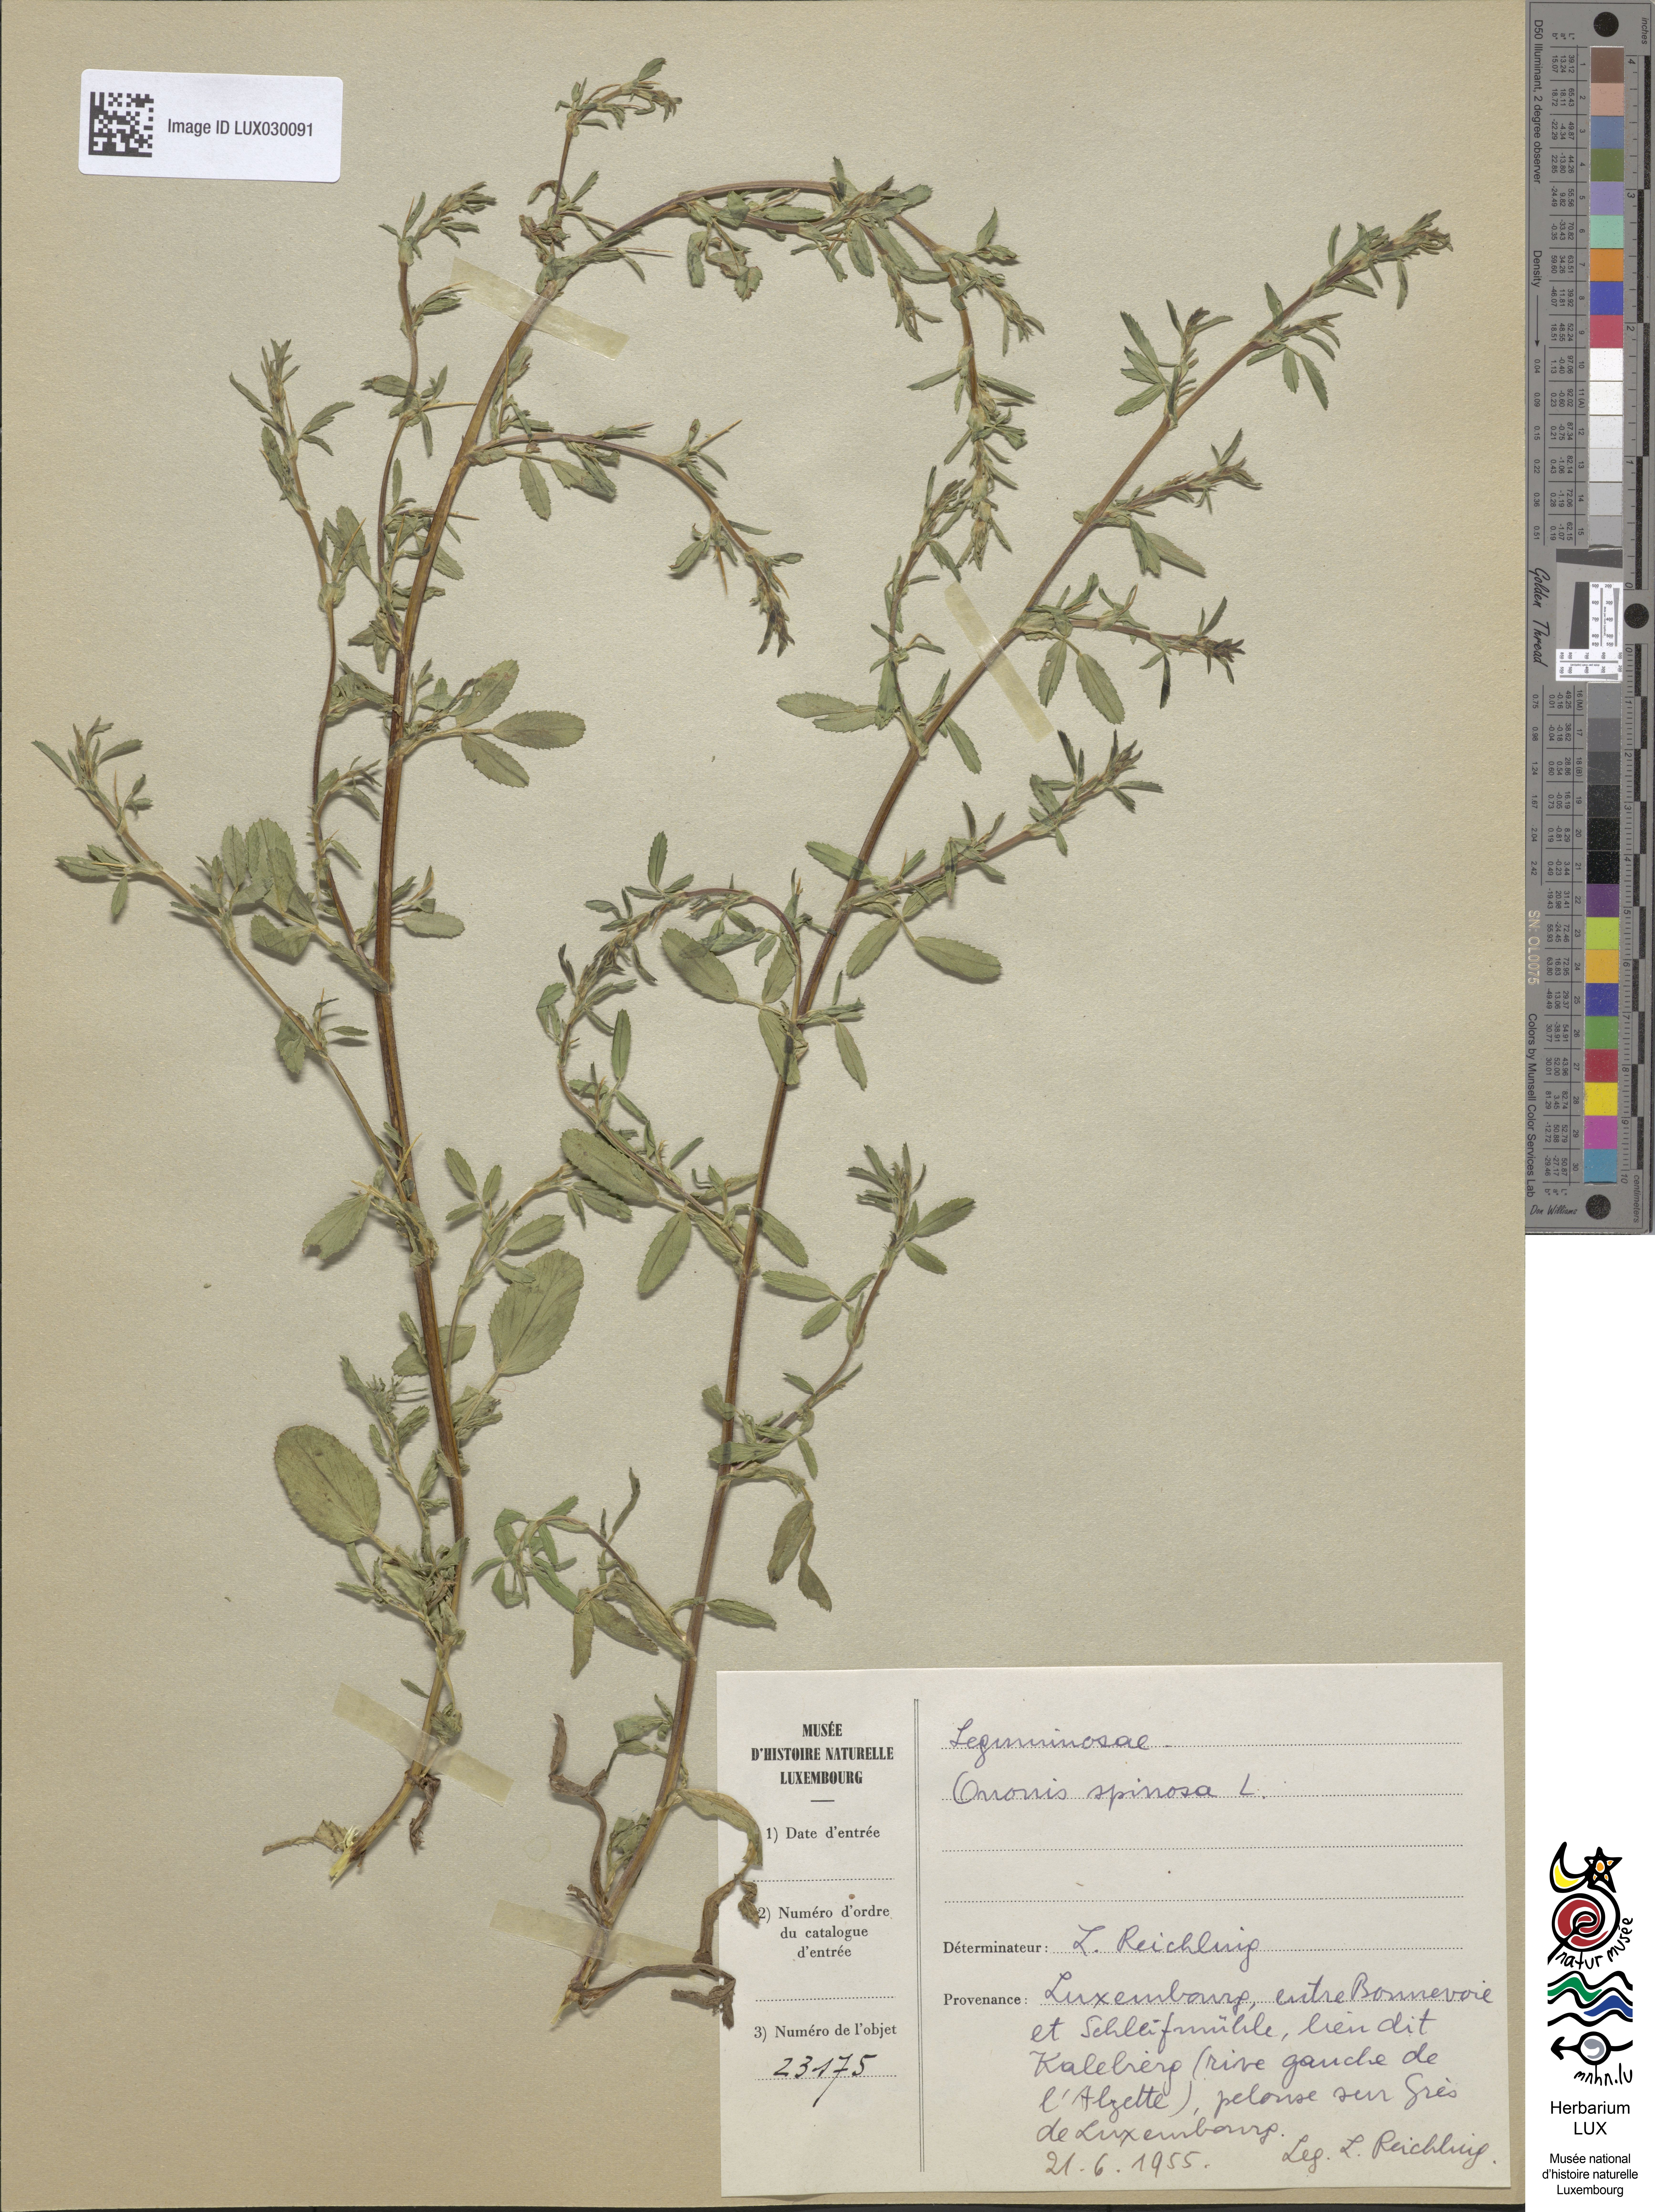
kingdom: Plantae
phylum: Tracheophyta
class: Magnoliopsida
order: Fabales
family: Fabaceae
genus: Ononis
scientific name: Ononis spinosa
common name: Spiny restharrow
